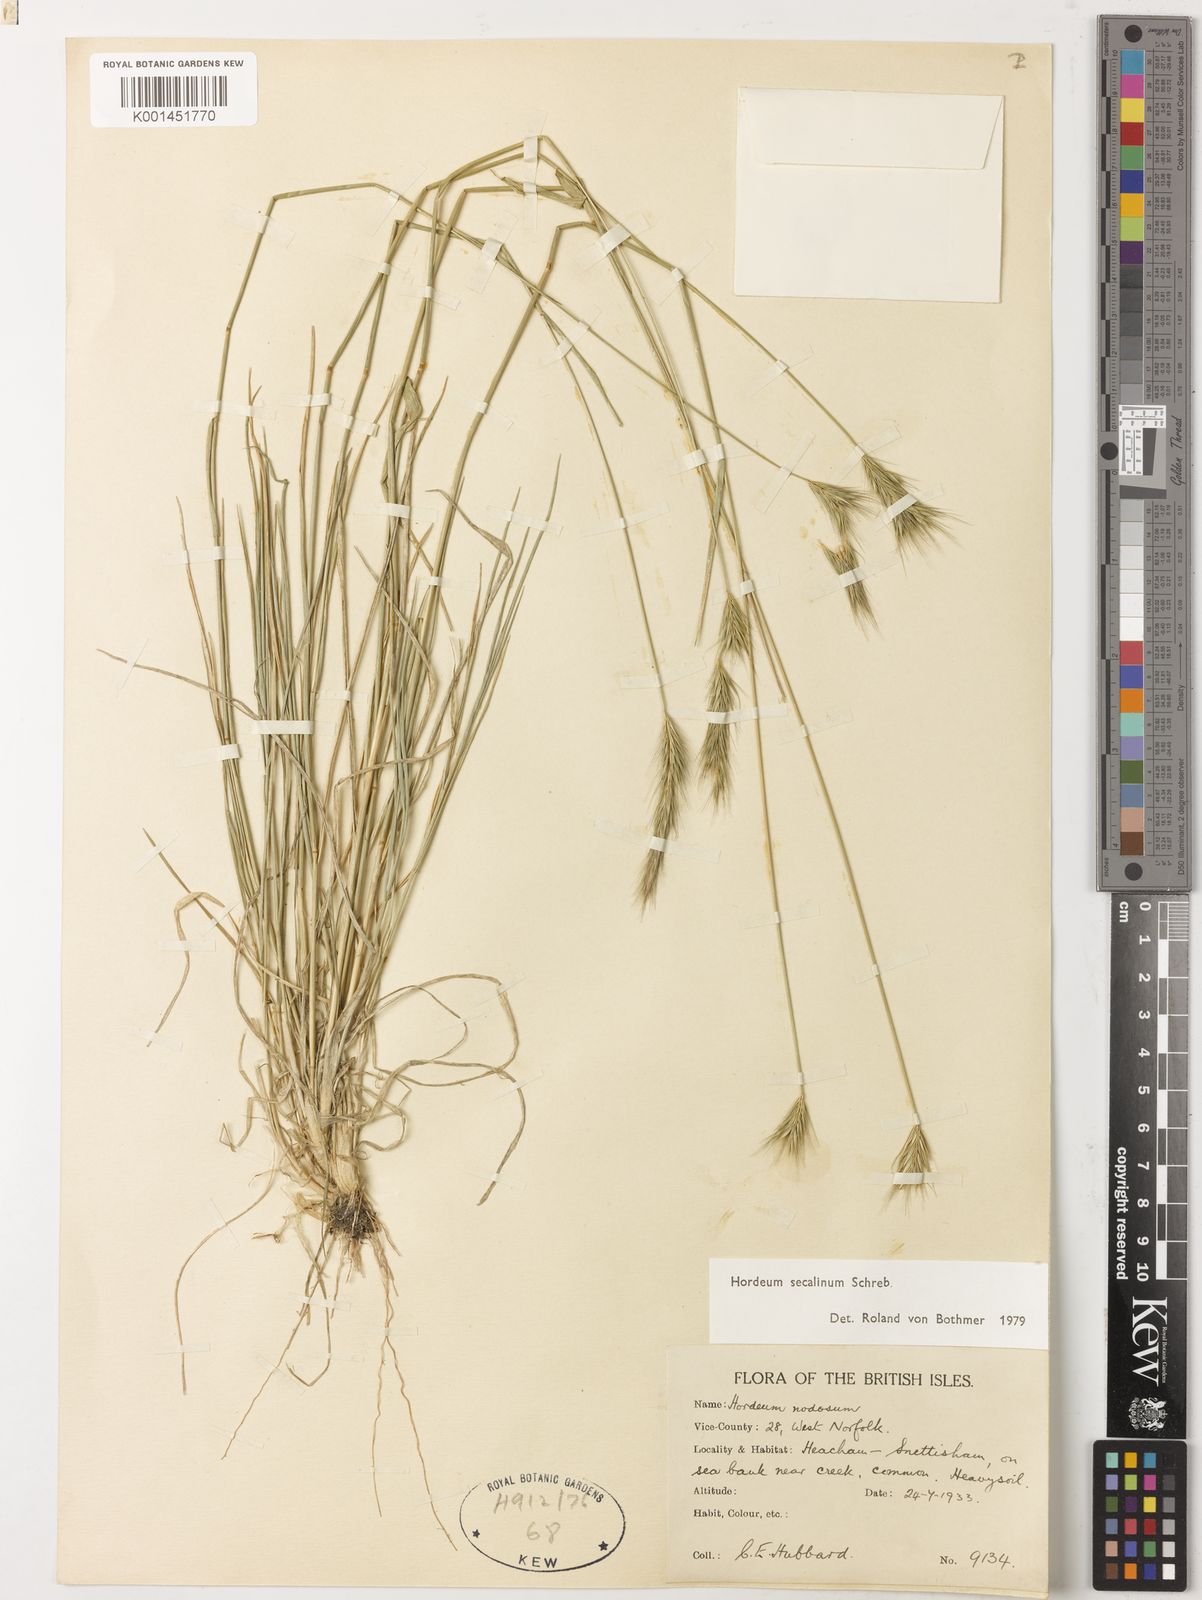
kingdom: Plantae
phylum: Tracheophyta
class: Liliopsida
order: Poales
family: Poaceae
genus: Hordeum
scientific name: Hordeum secalinum
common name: Meadow barley
